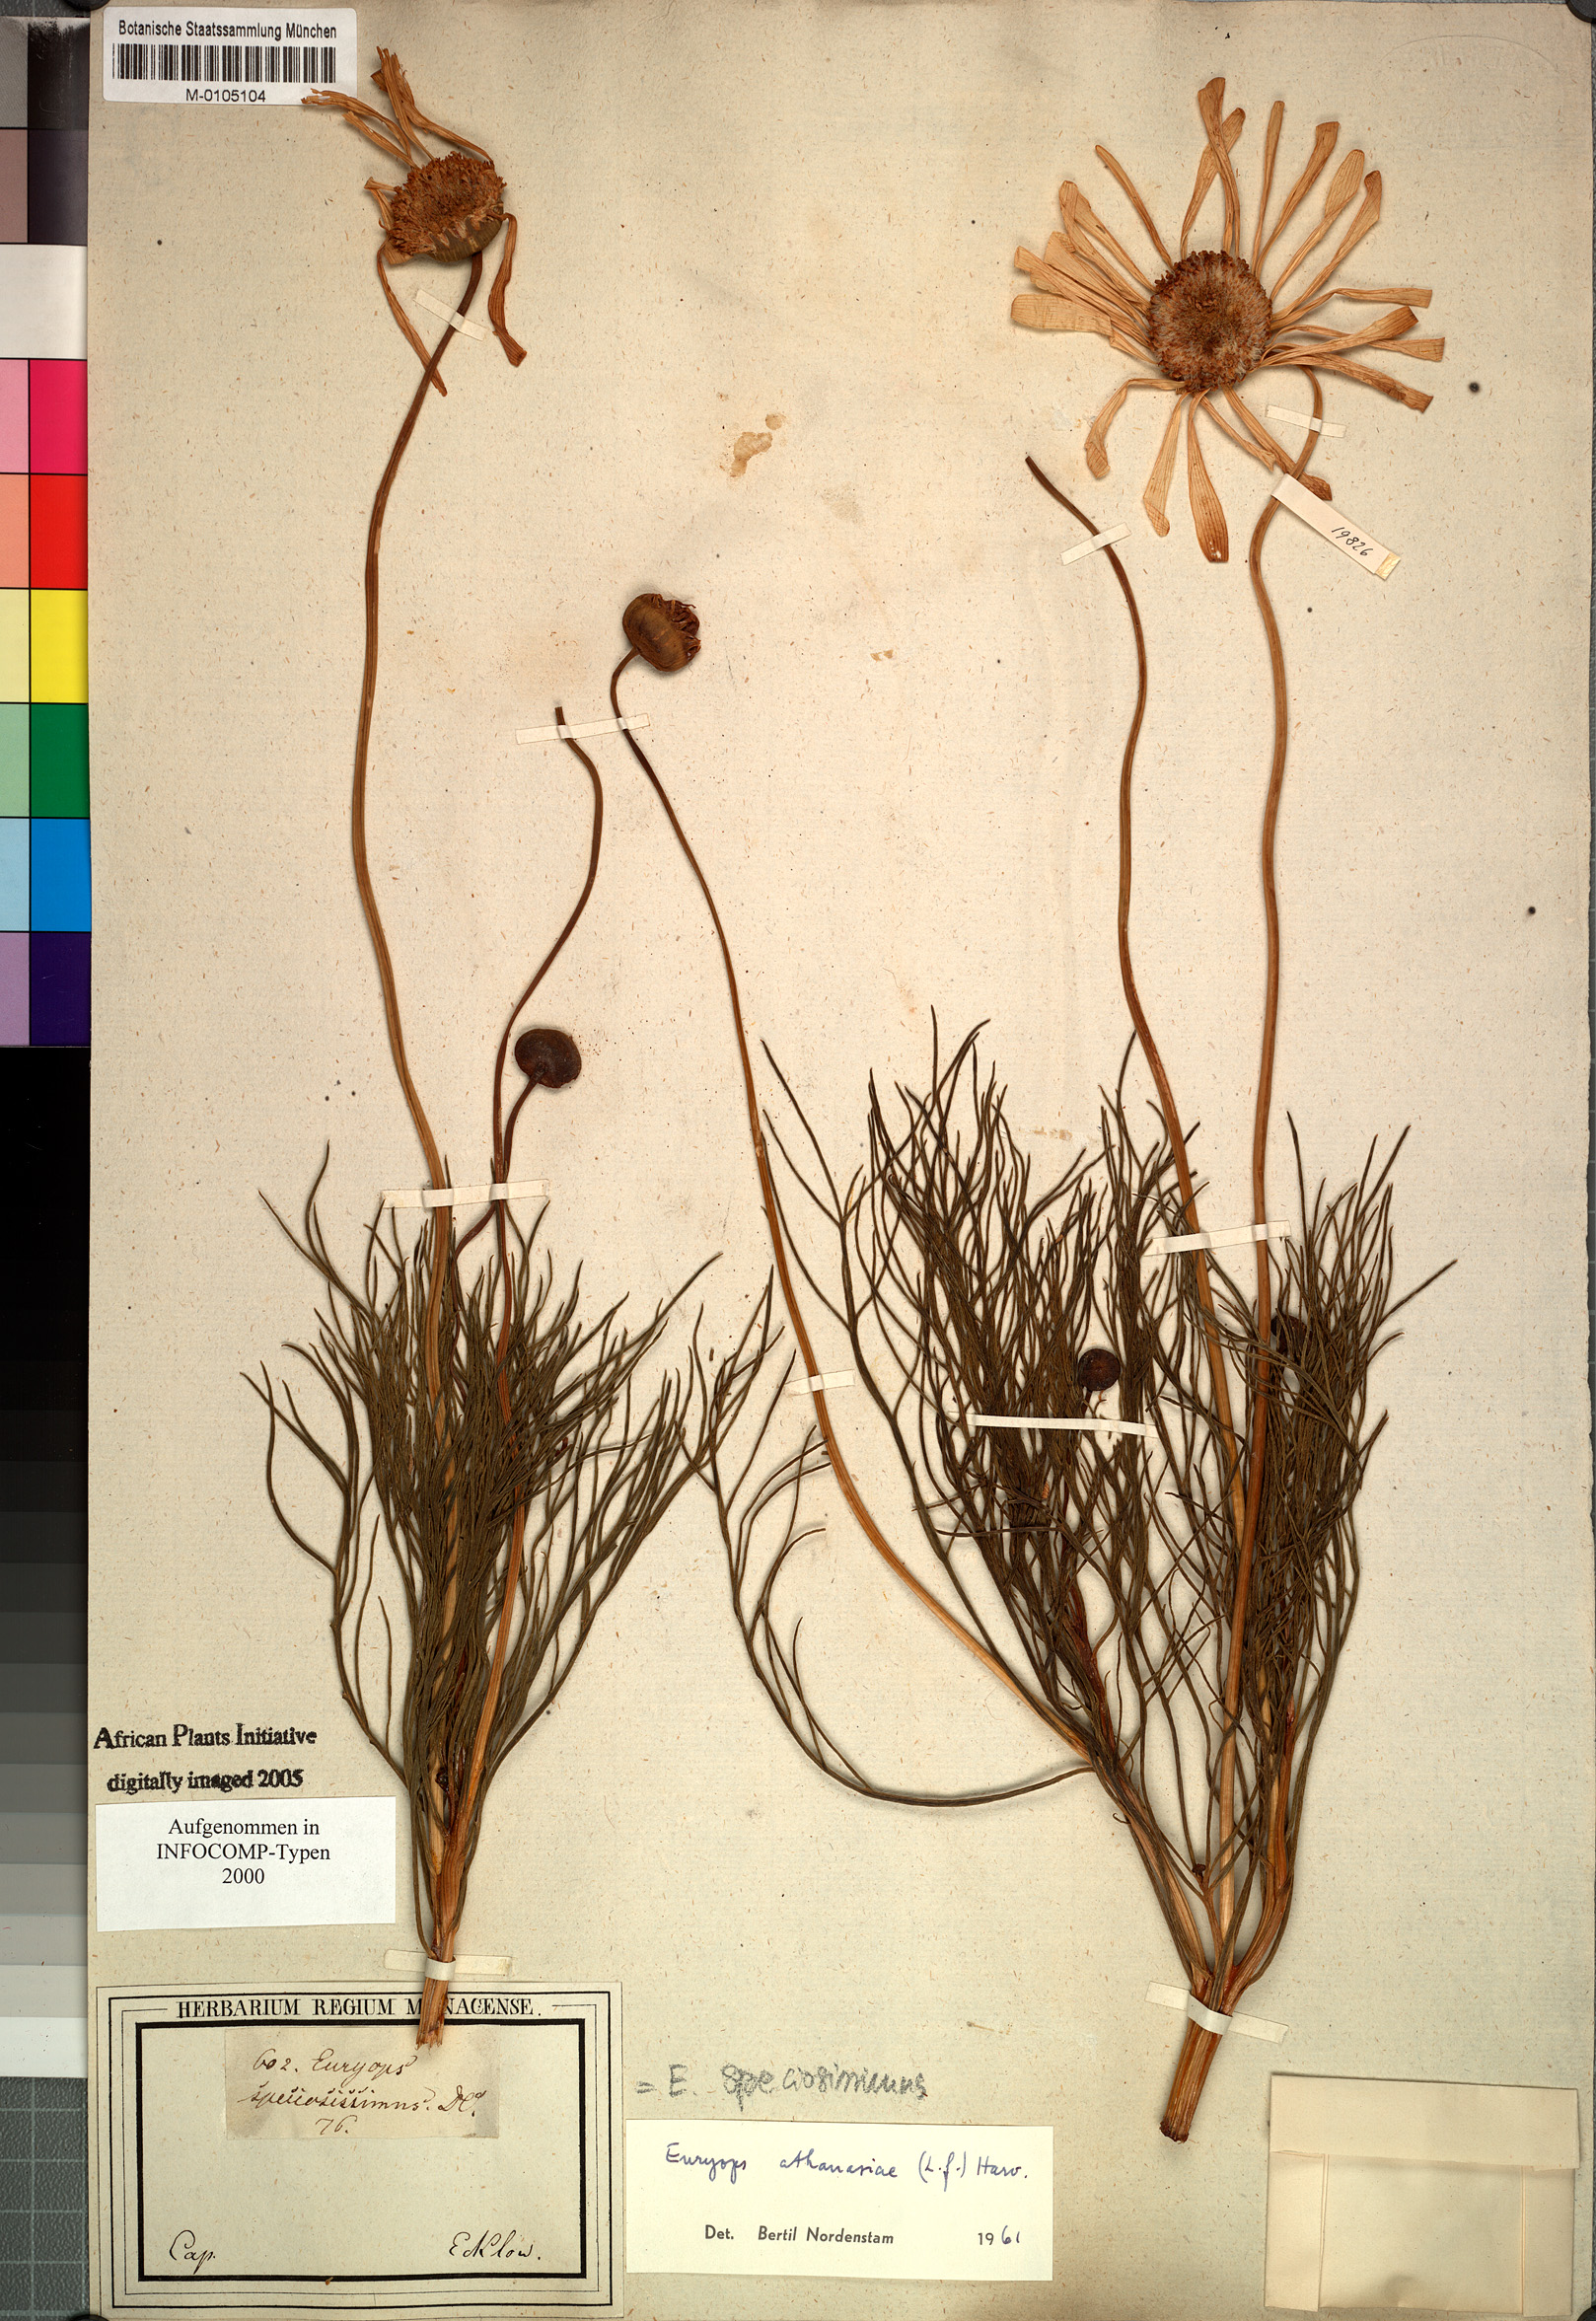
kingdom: Plantae
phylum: Tracheophyta
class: Magnoliopsida
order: Asterales
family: Asteraceae
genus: Euryops
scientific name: Euryops abrotanifolius
